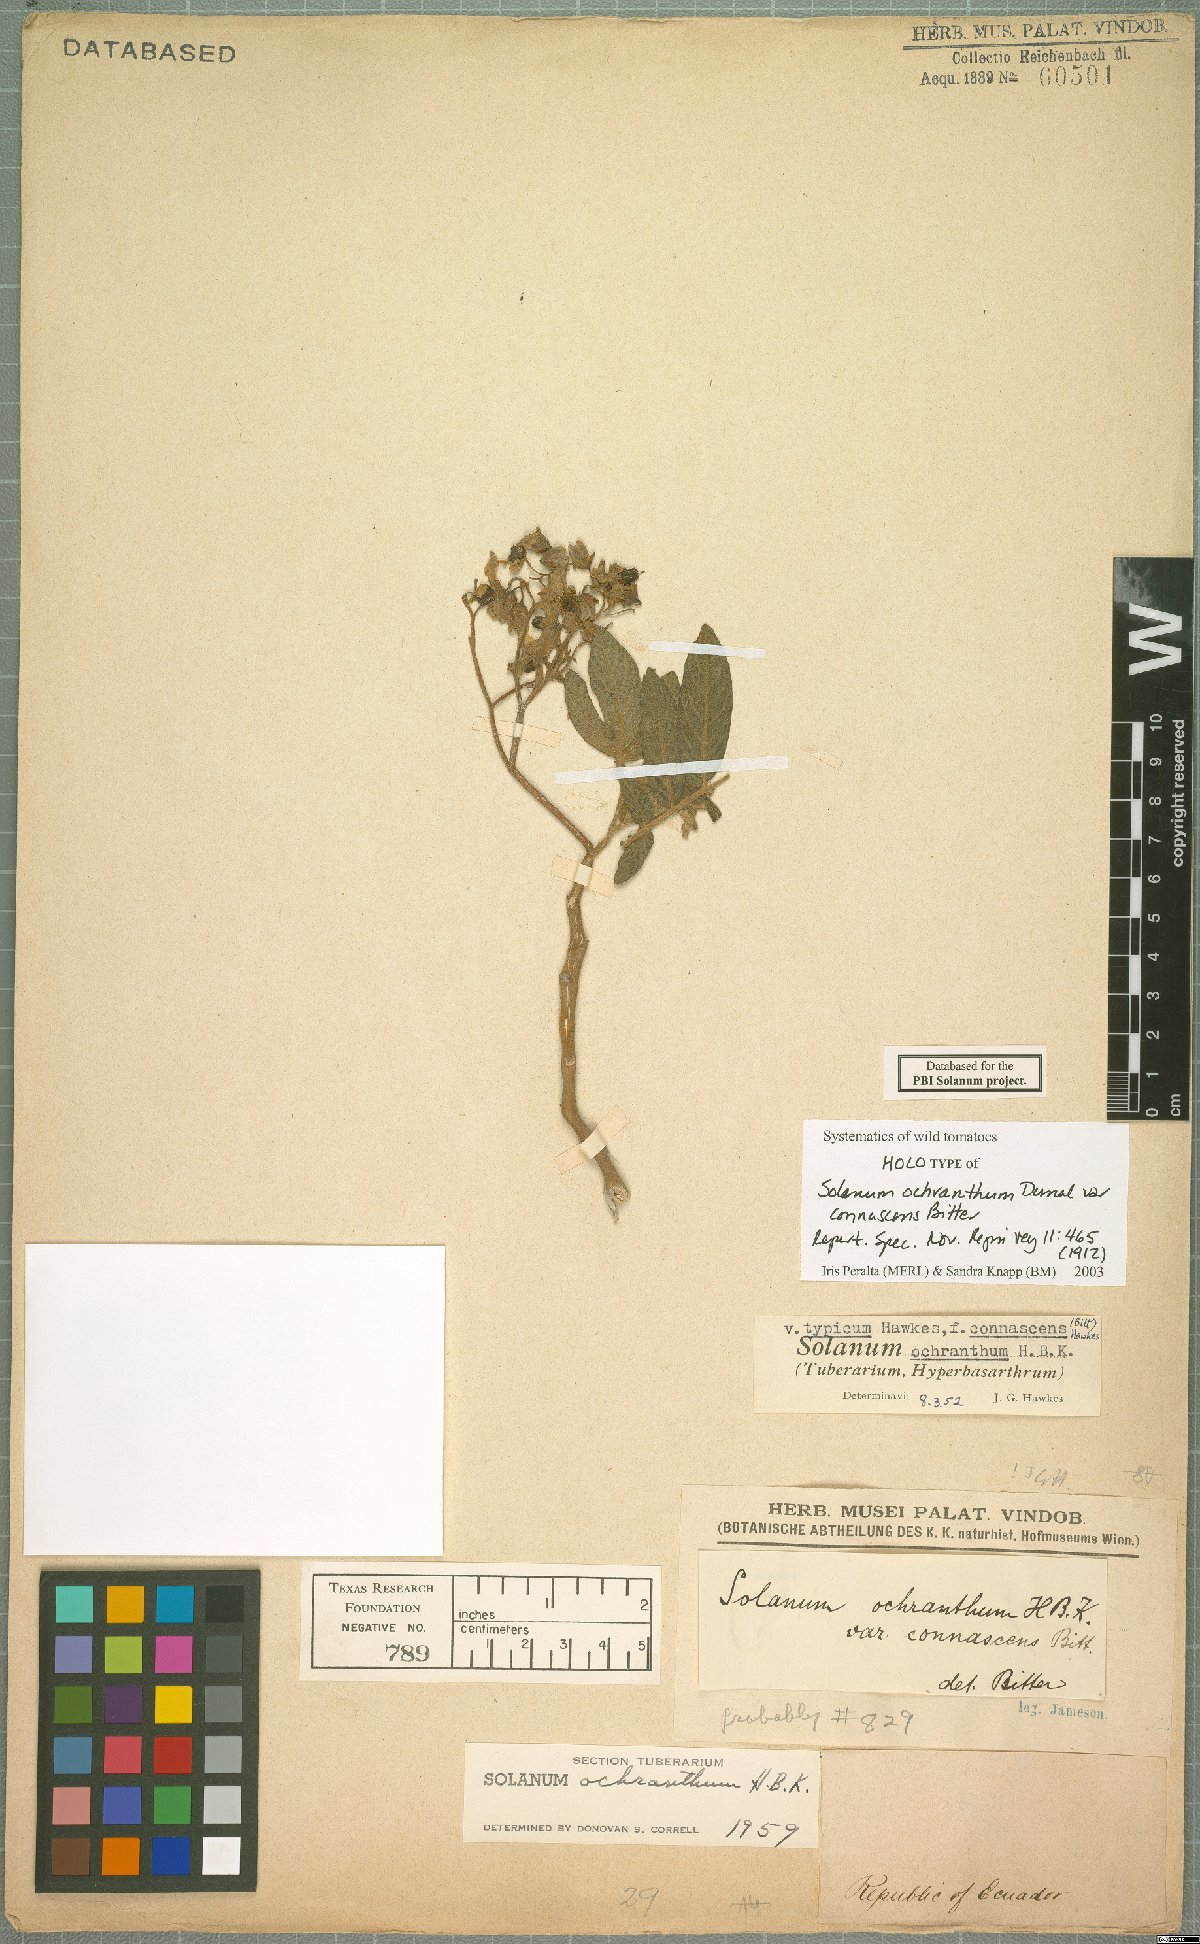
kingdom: Plantae
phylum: Tracheophyta
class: Magnoliopsida
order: Solanales
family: Solanaceae
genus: Solanum
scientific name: Solanum ochranthum
